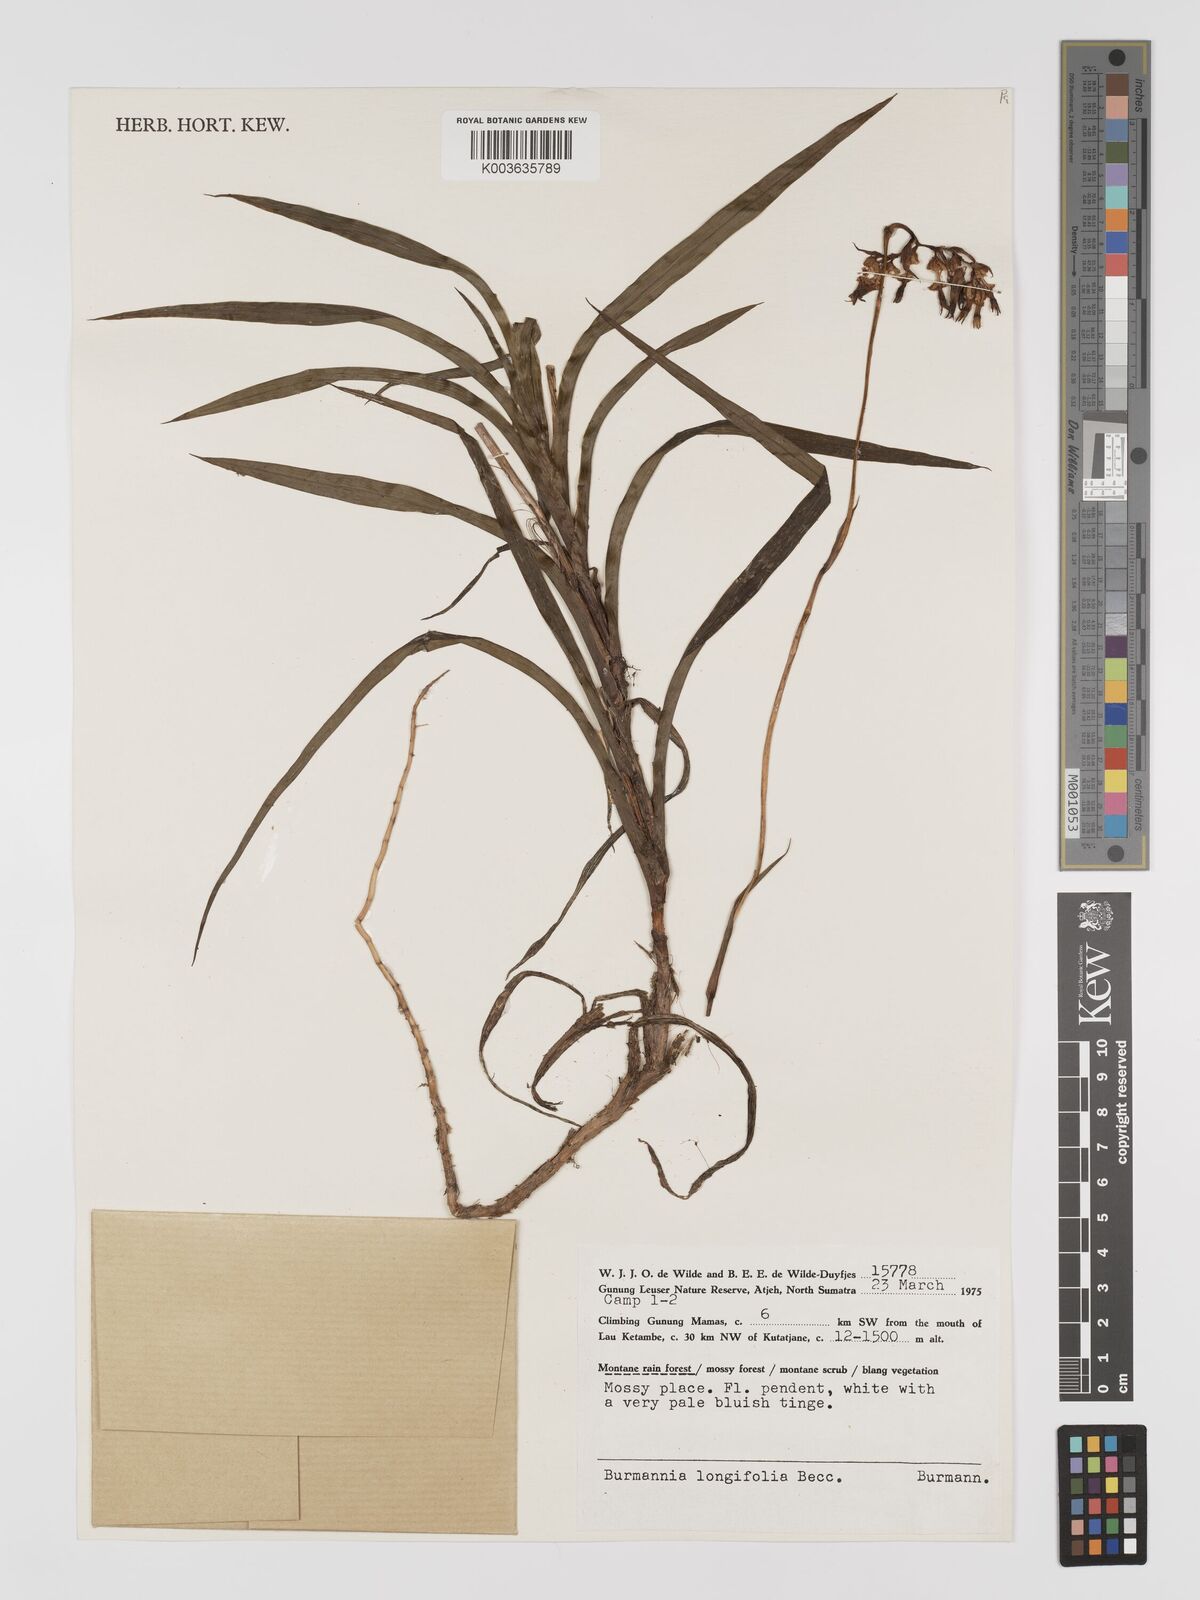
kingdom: Plantae
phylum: Tracheophyta
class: Liliopsida
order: Dioscoreales
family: Burmanniaceae
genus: Burmannia
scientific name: Burmannia longifolia
